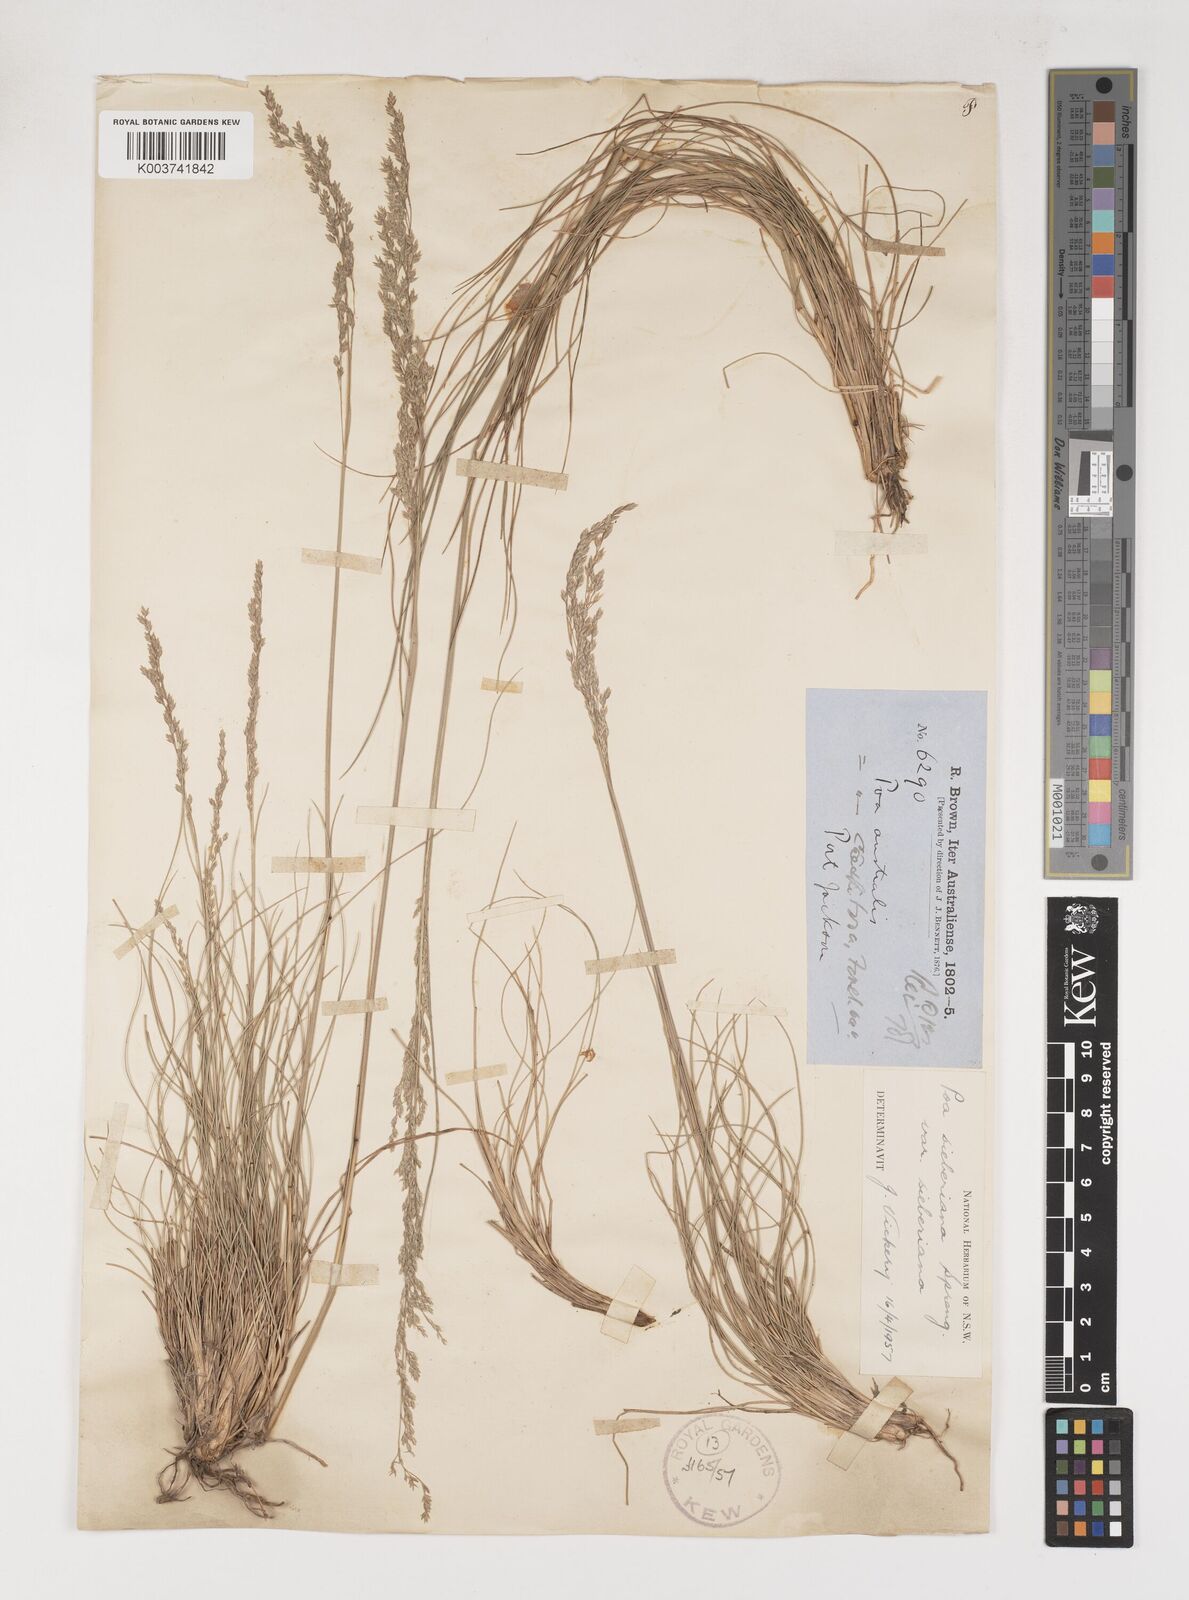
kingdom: Plantae
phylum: Tracheophyta
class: Liliopsida
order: Poales
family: Poaceae
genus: Poa
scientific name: Poa sieberiana
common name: Tussock poa
